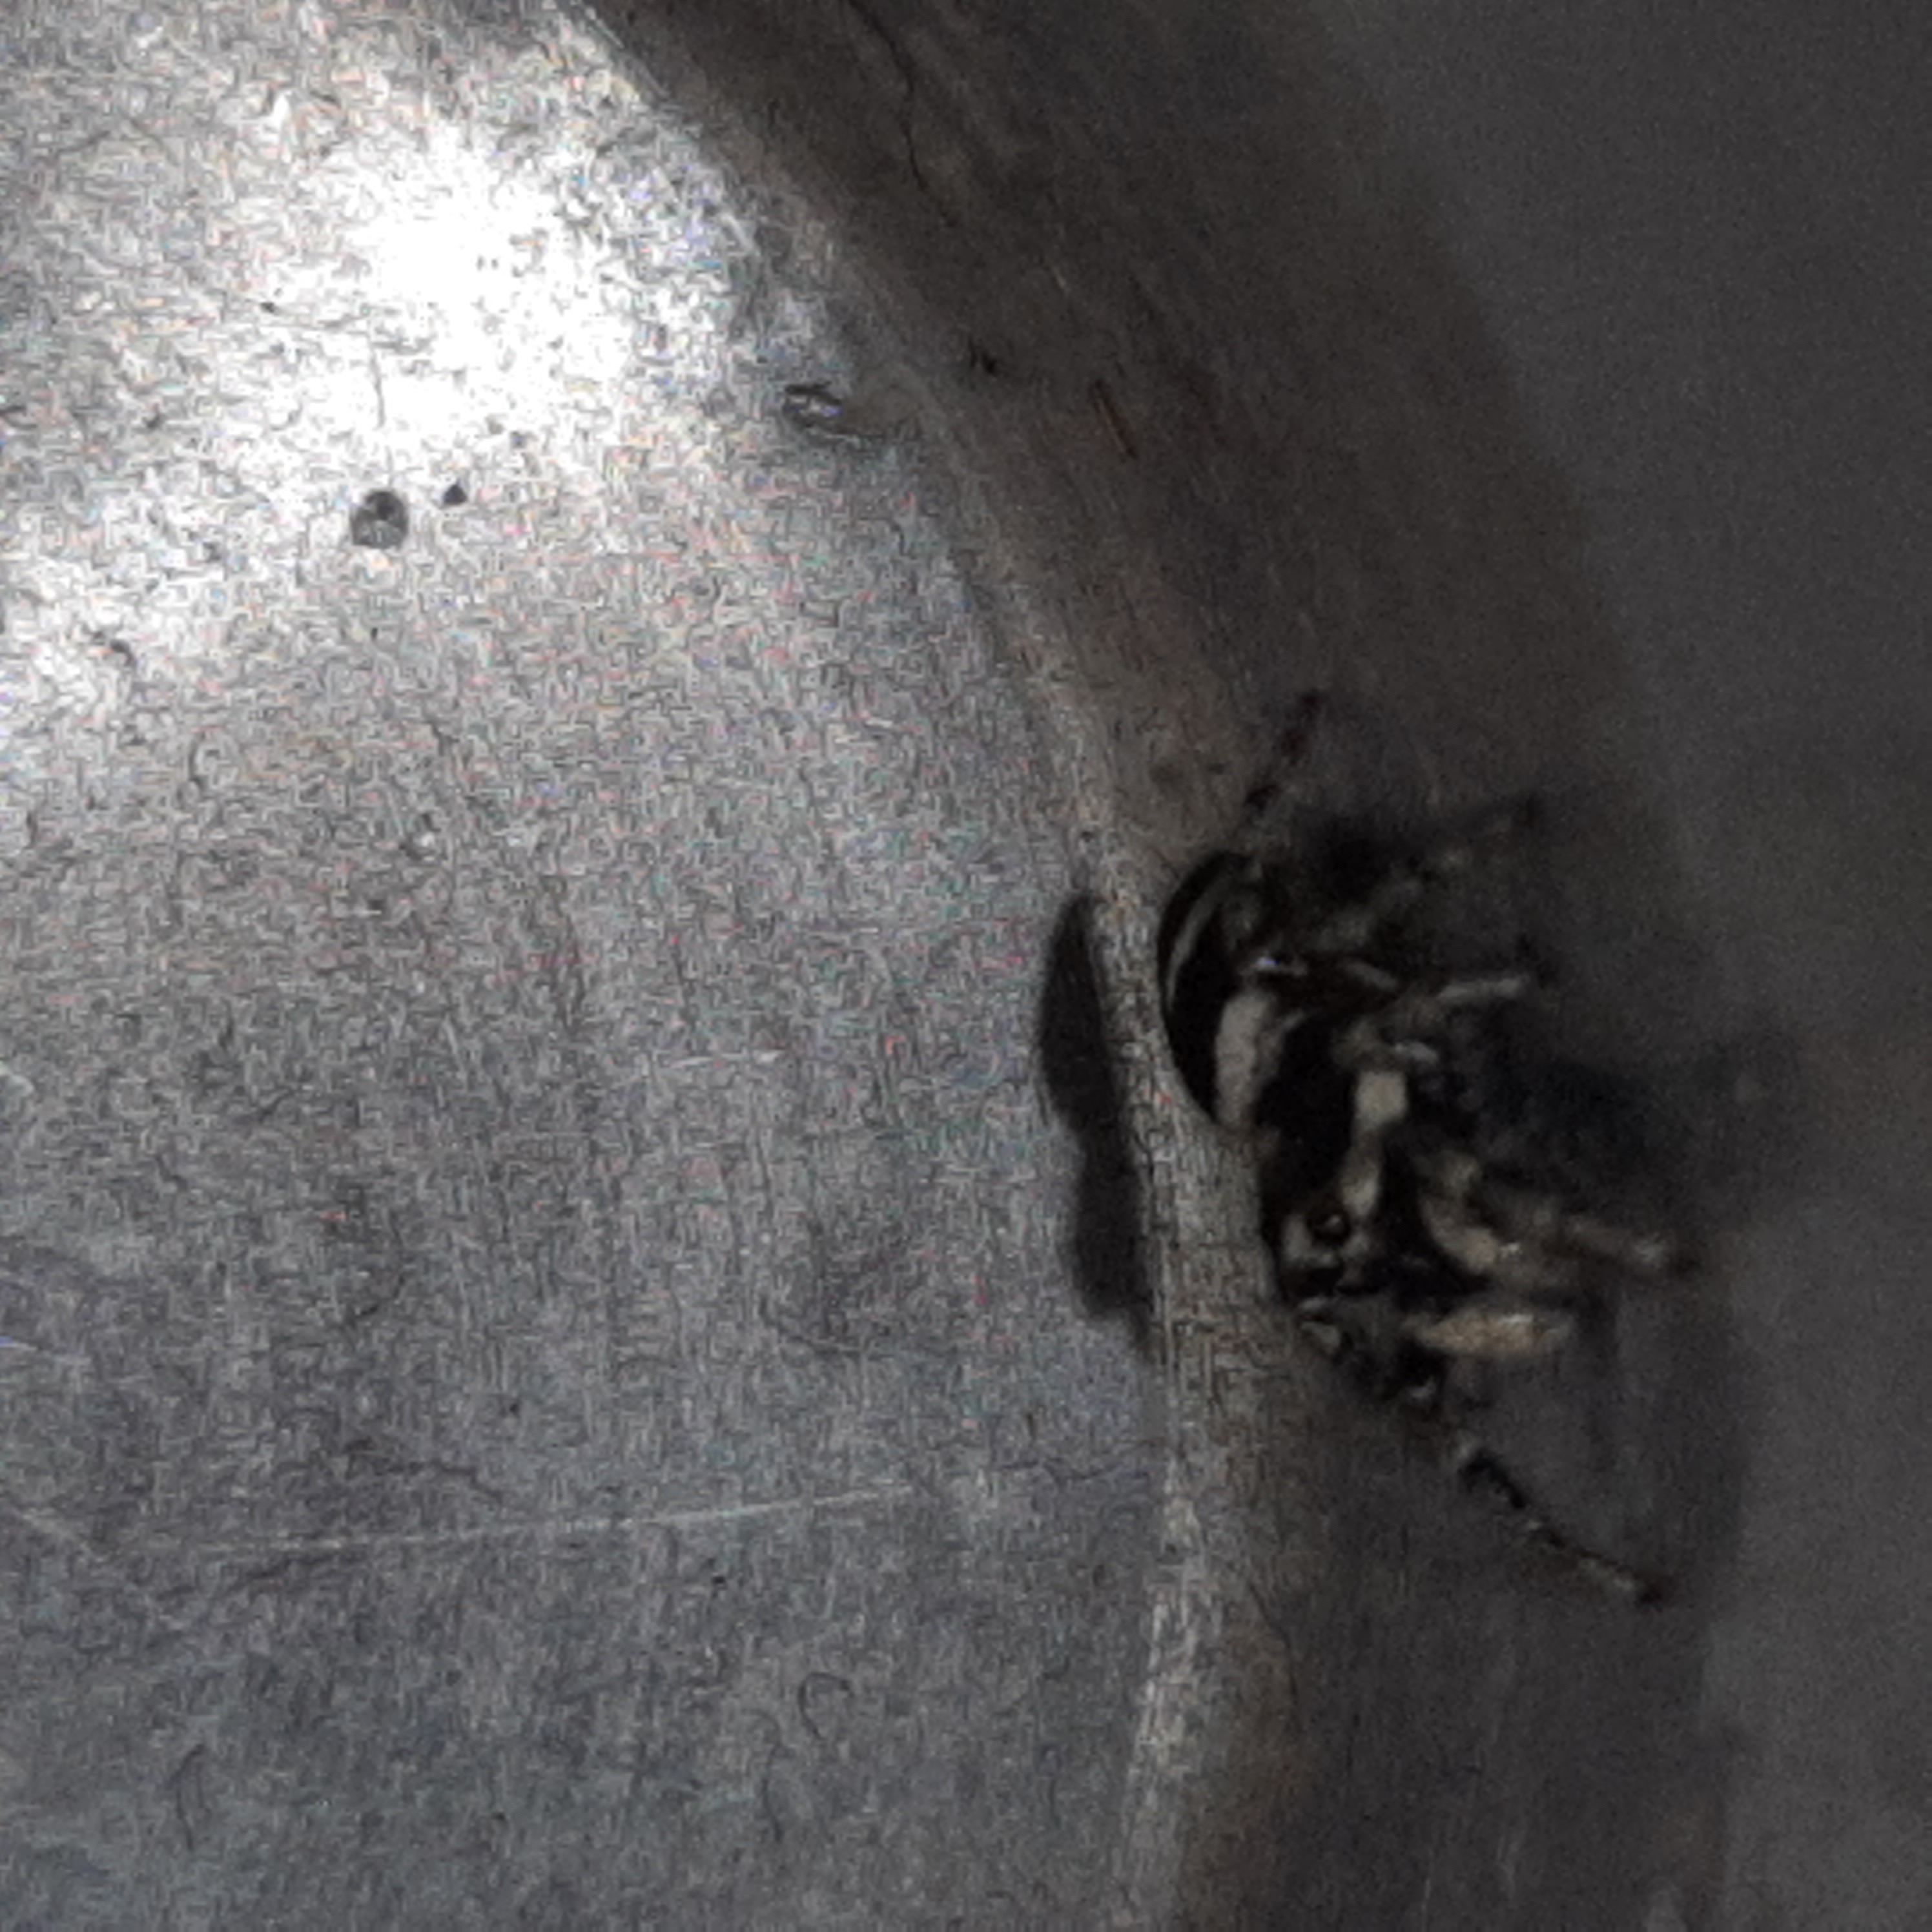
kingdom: Animalia
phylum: Arthropoda
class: Arachnida
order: Araneae
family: Salticidae
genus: Salticus
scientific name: Salticus scenicus
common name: Almindelig zebraedderkop
